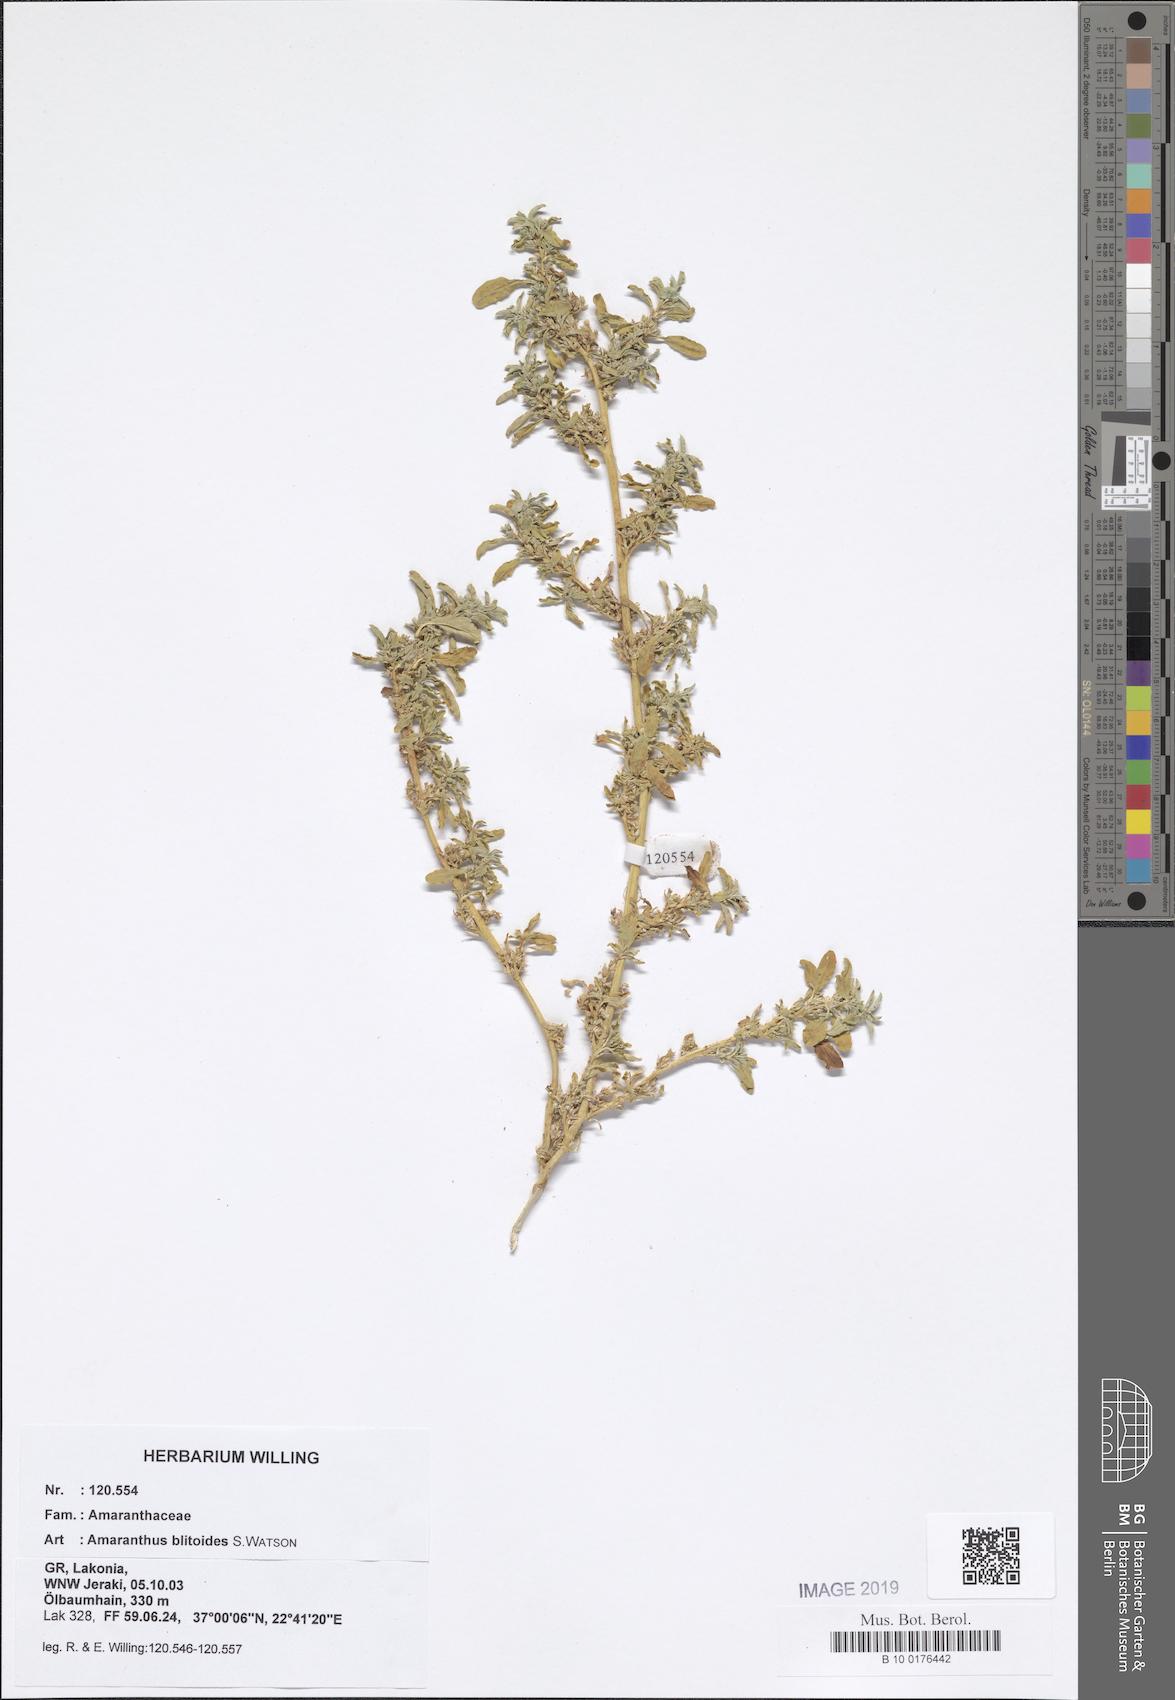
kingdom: Plantae
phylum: Tracheophyta
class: Magnoliopsida
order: Caryophyllales
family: Amaranthaceae
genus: Amaranthus
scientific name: Amaranthus blitoides
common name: Prostrate pigweed
